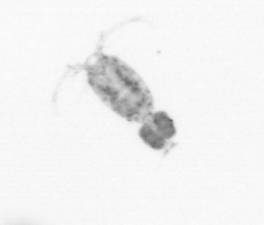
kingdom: Animalia
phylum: Arthropoda
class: Copepoda
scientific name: Copepoda
